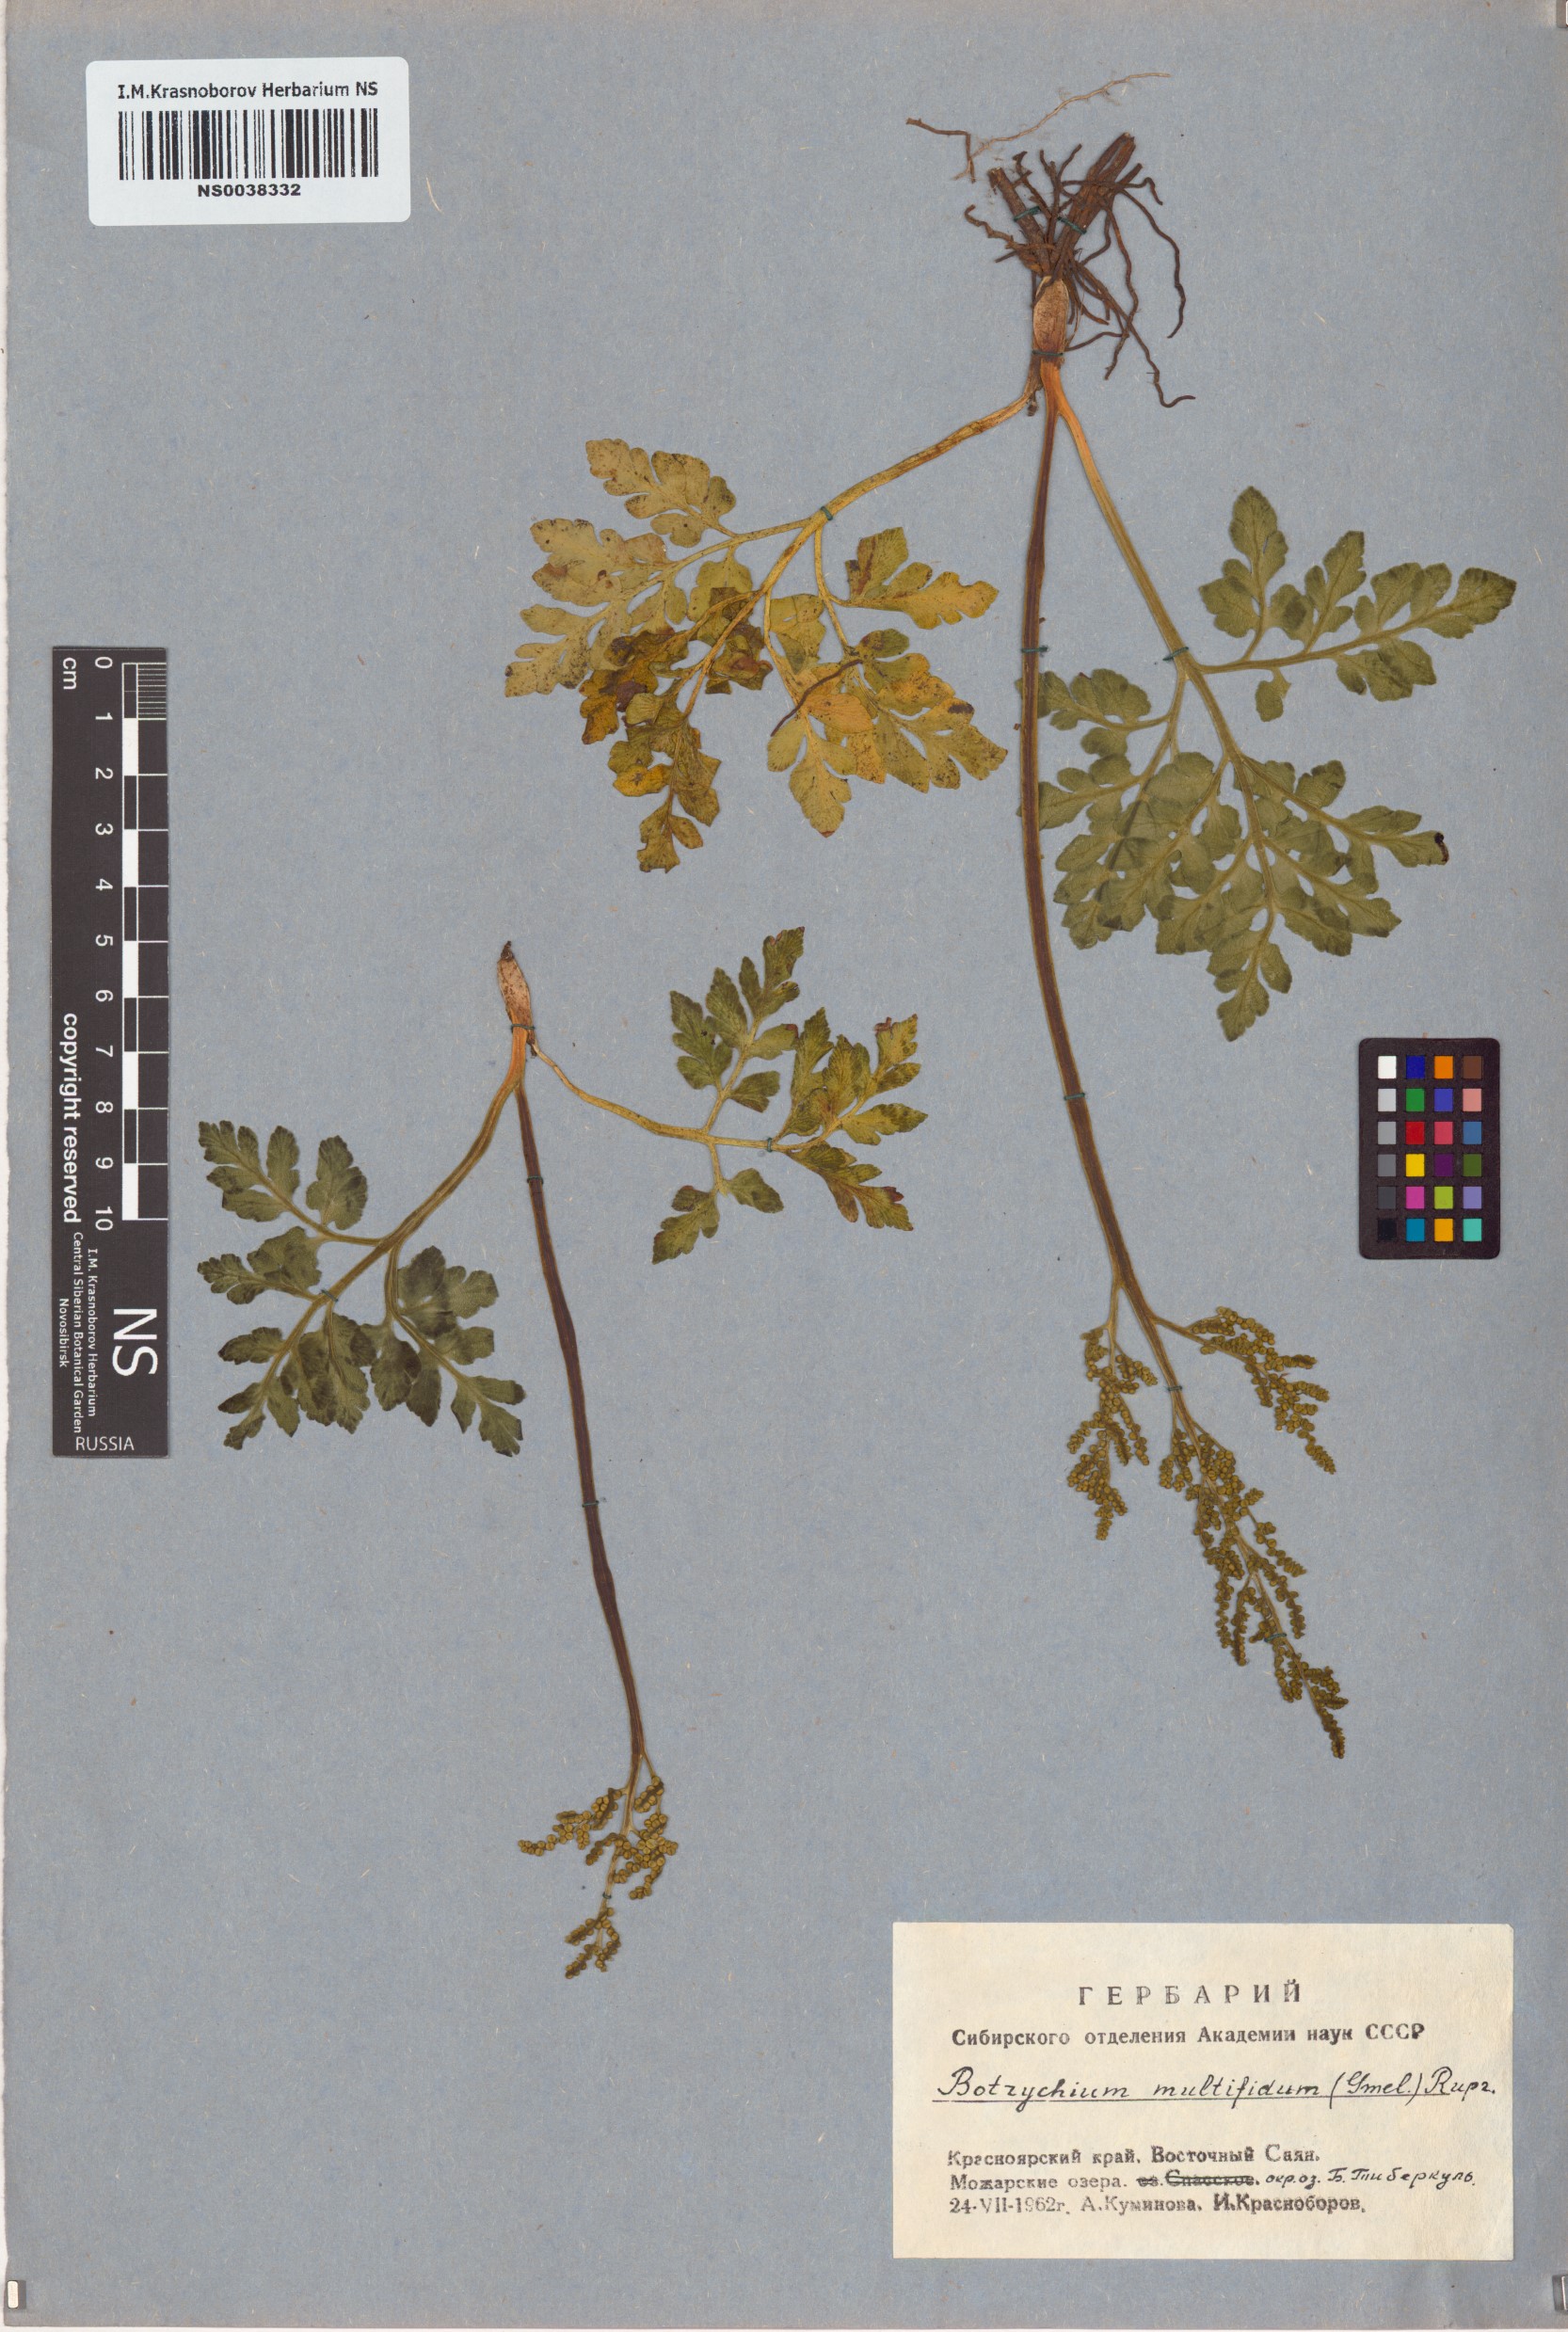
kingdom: Plantae
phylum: Tracheophyta
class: Polypodiopsida
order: Ophioglossales
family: Ophioglossaceae
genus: Sceptridium
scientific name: Sceptridium multifidum
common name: Leathery grape fern
